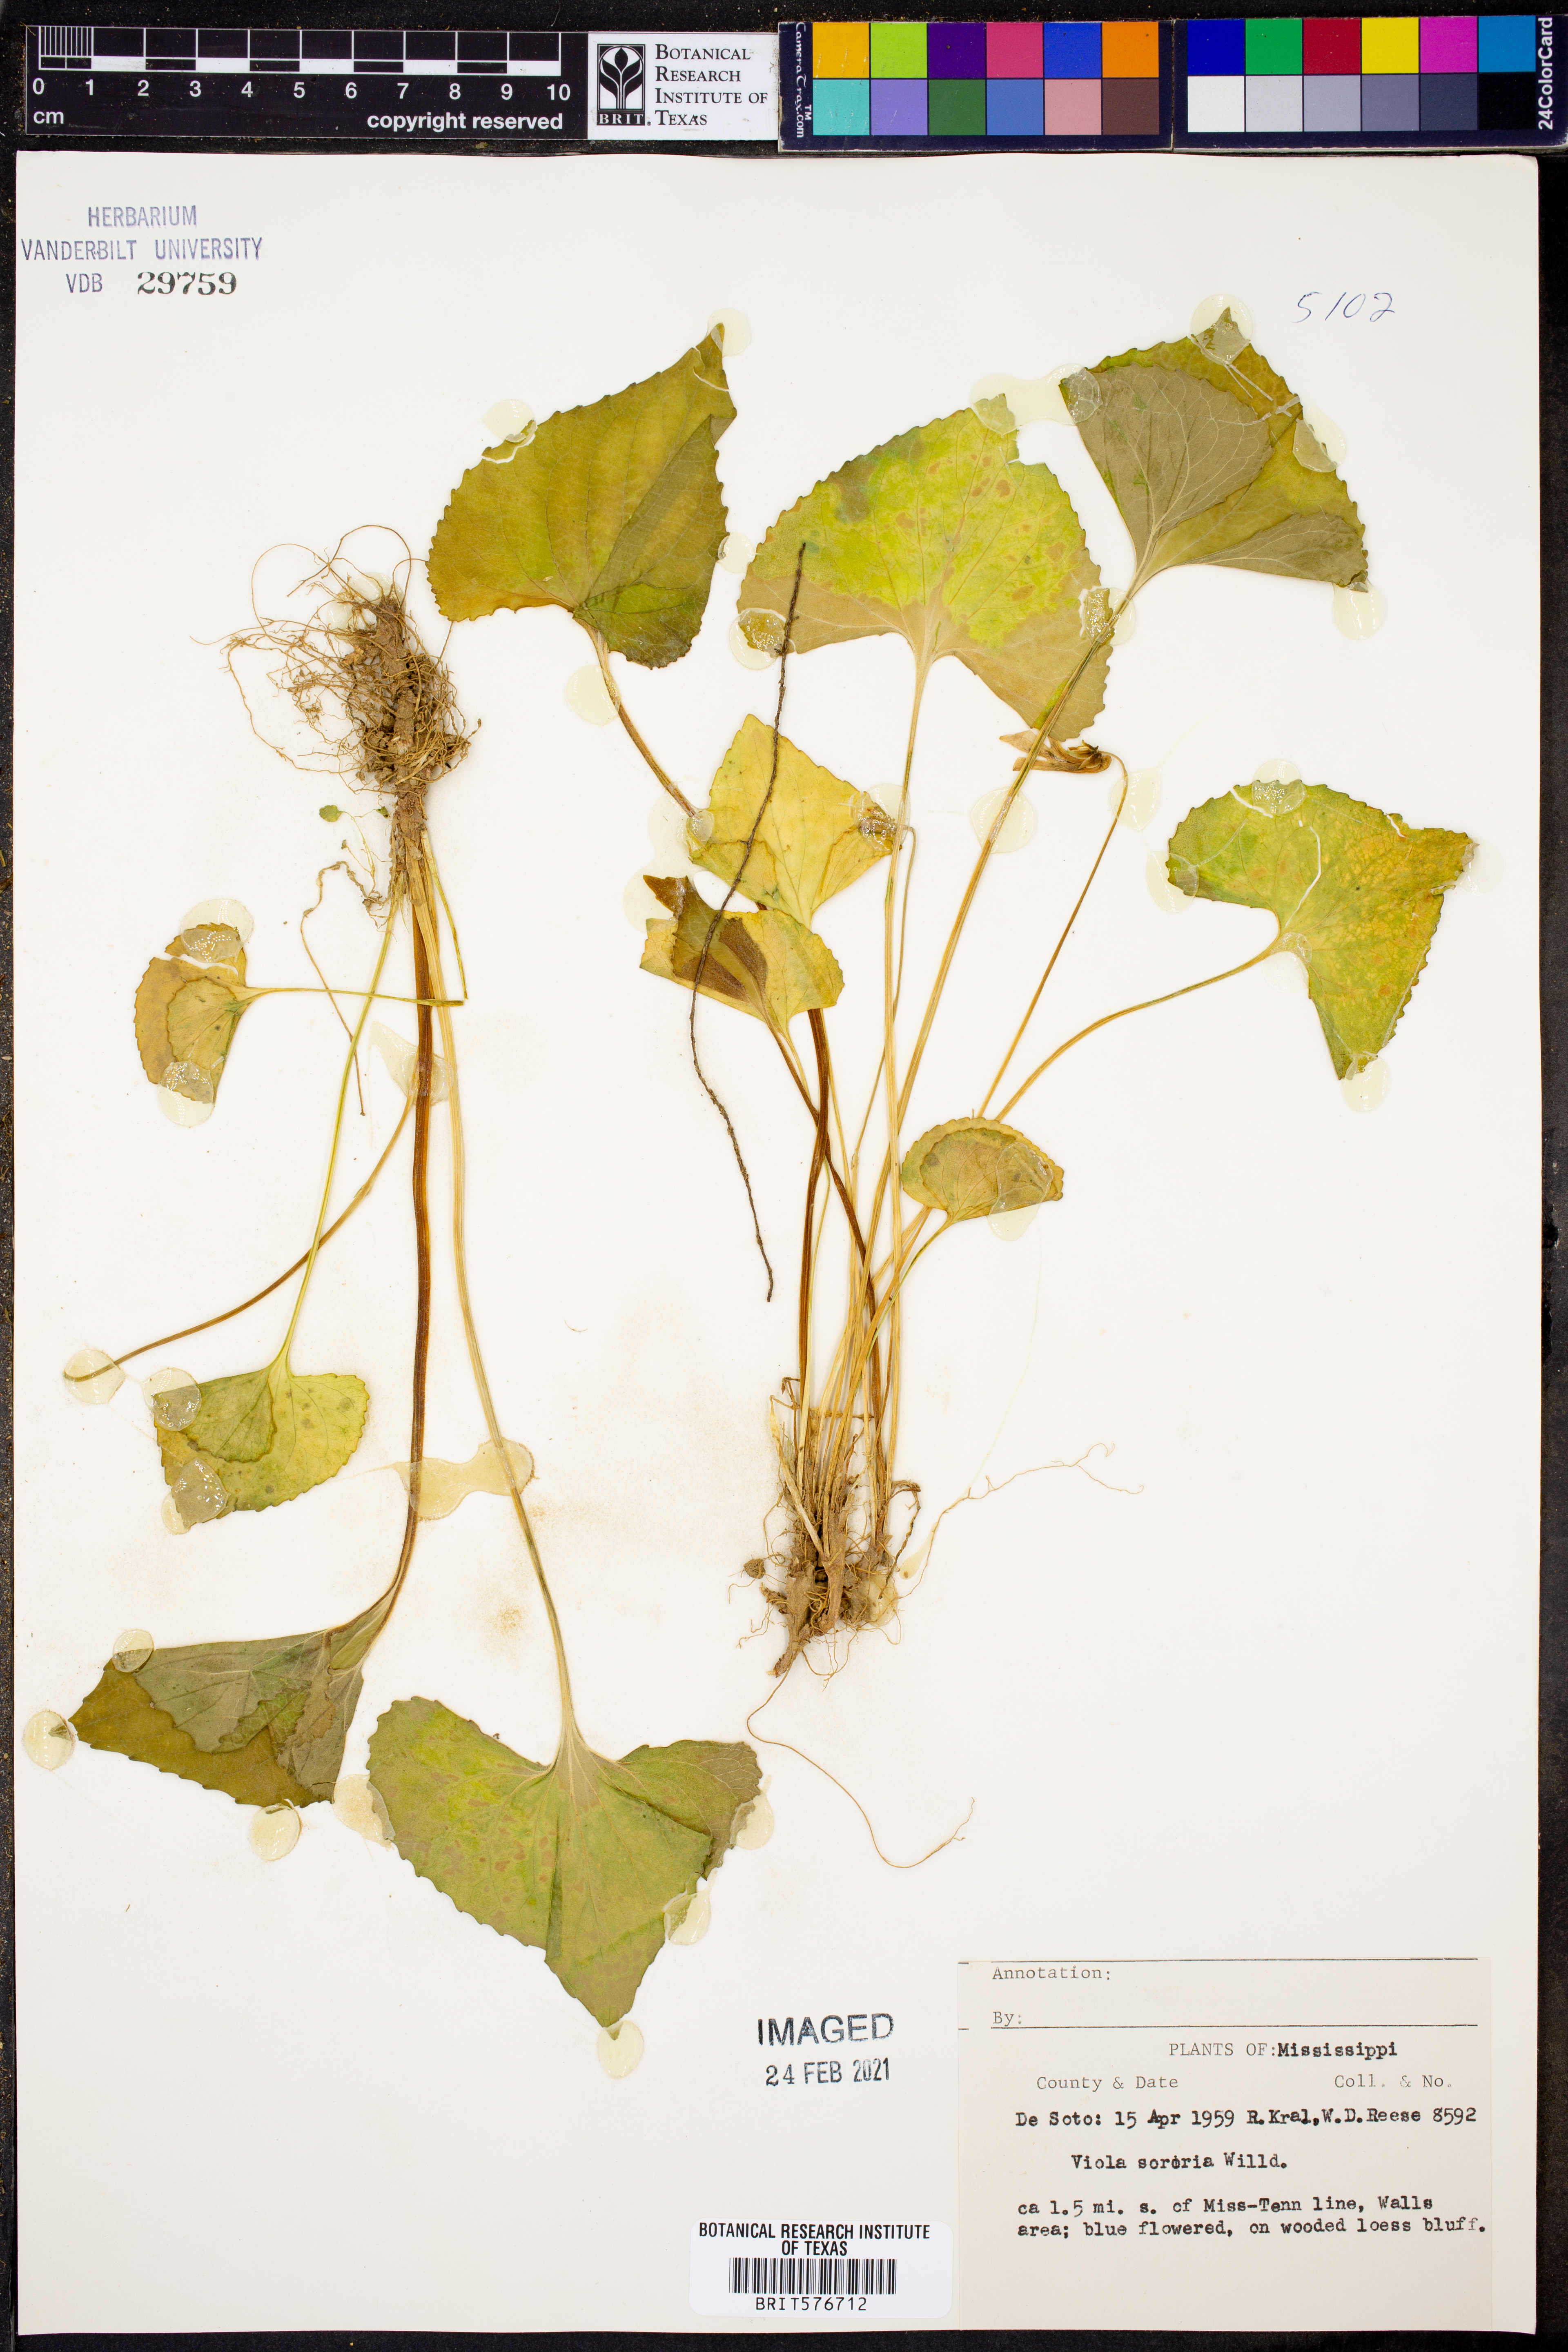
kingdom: Plantae
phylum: Tracheophyta
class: Magnoliopsida
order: Malpighiales
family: Violaceae
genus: Viola
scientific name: Viola sororia
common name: Dooryard violet
